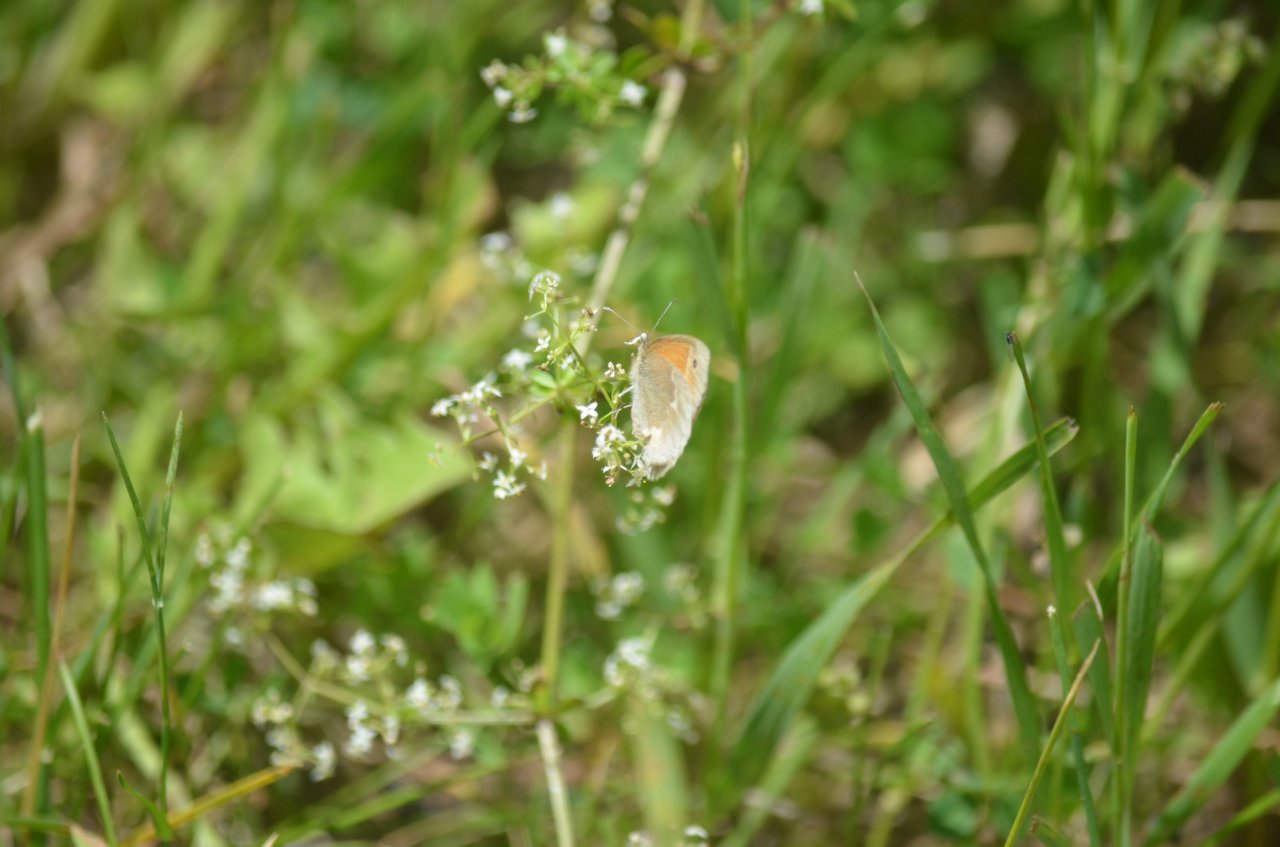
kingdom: Animalia
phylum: Arthropoda
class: Insecta
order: Lepidoptera
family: Nymphalidae
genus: Coenonympha
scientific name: Coenonympha tullia
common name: Large Heath
